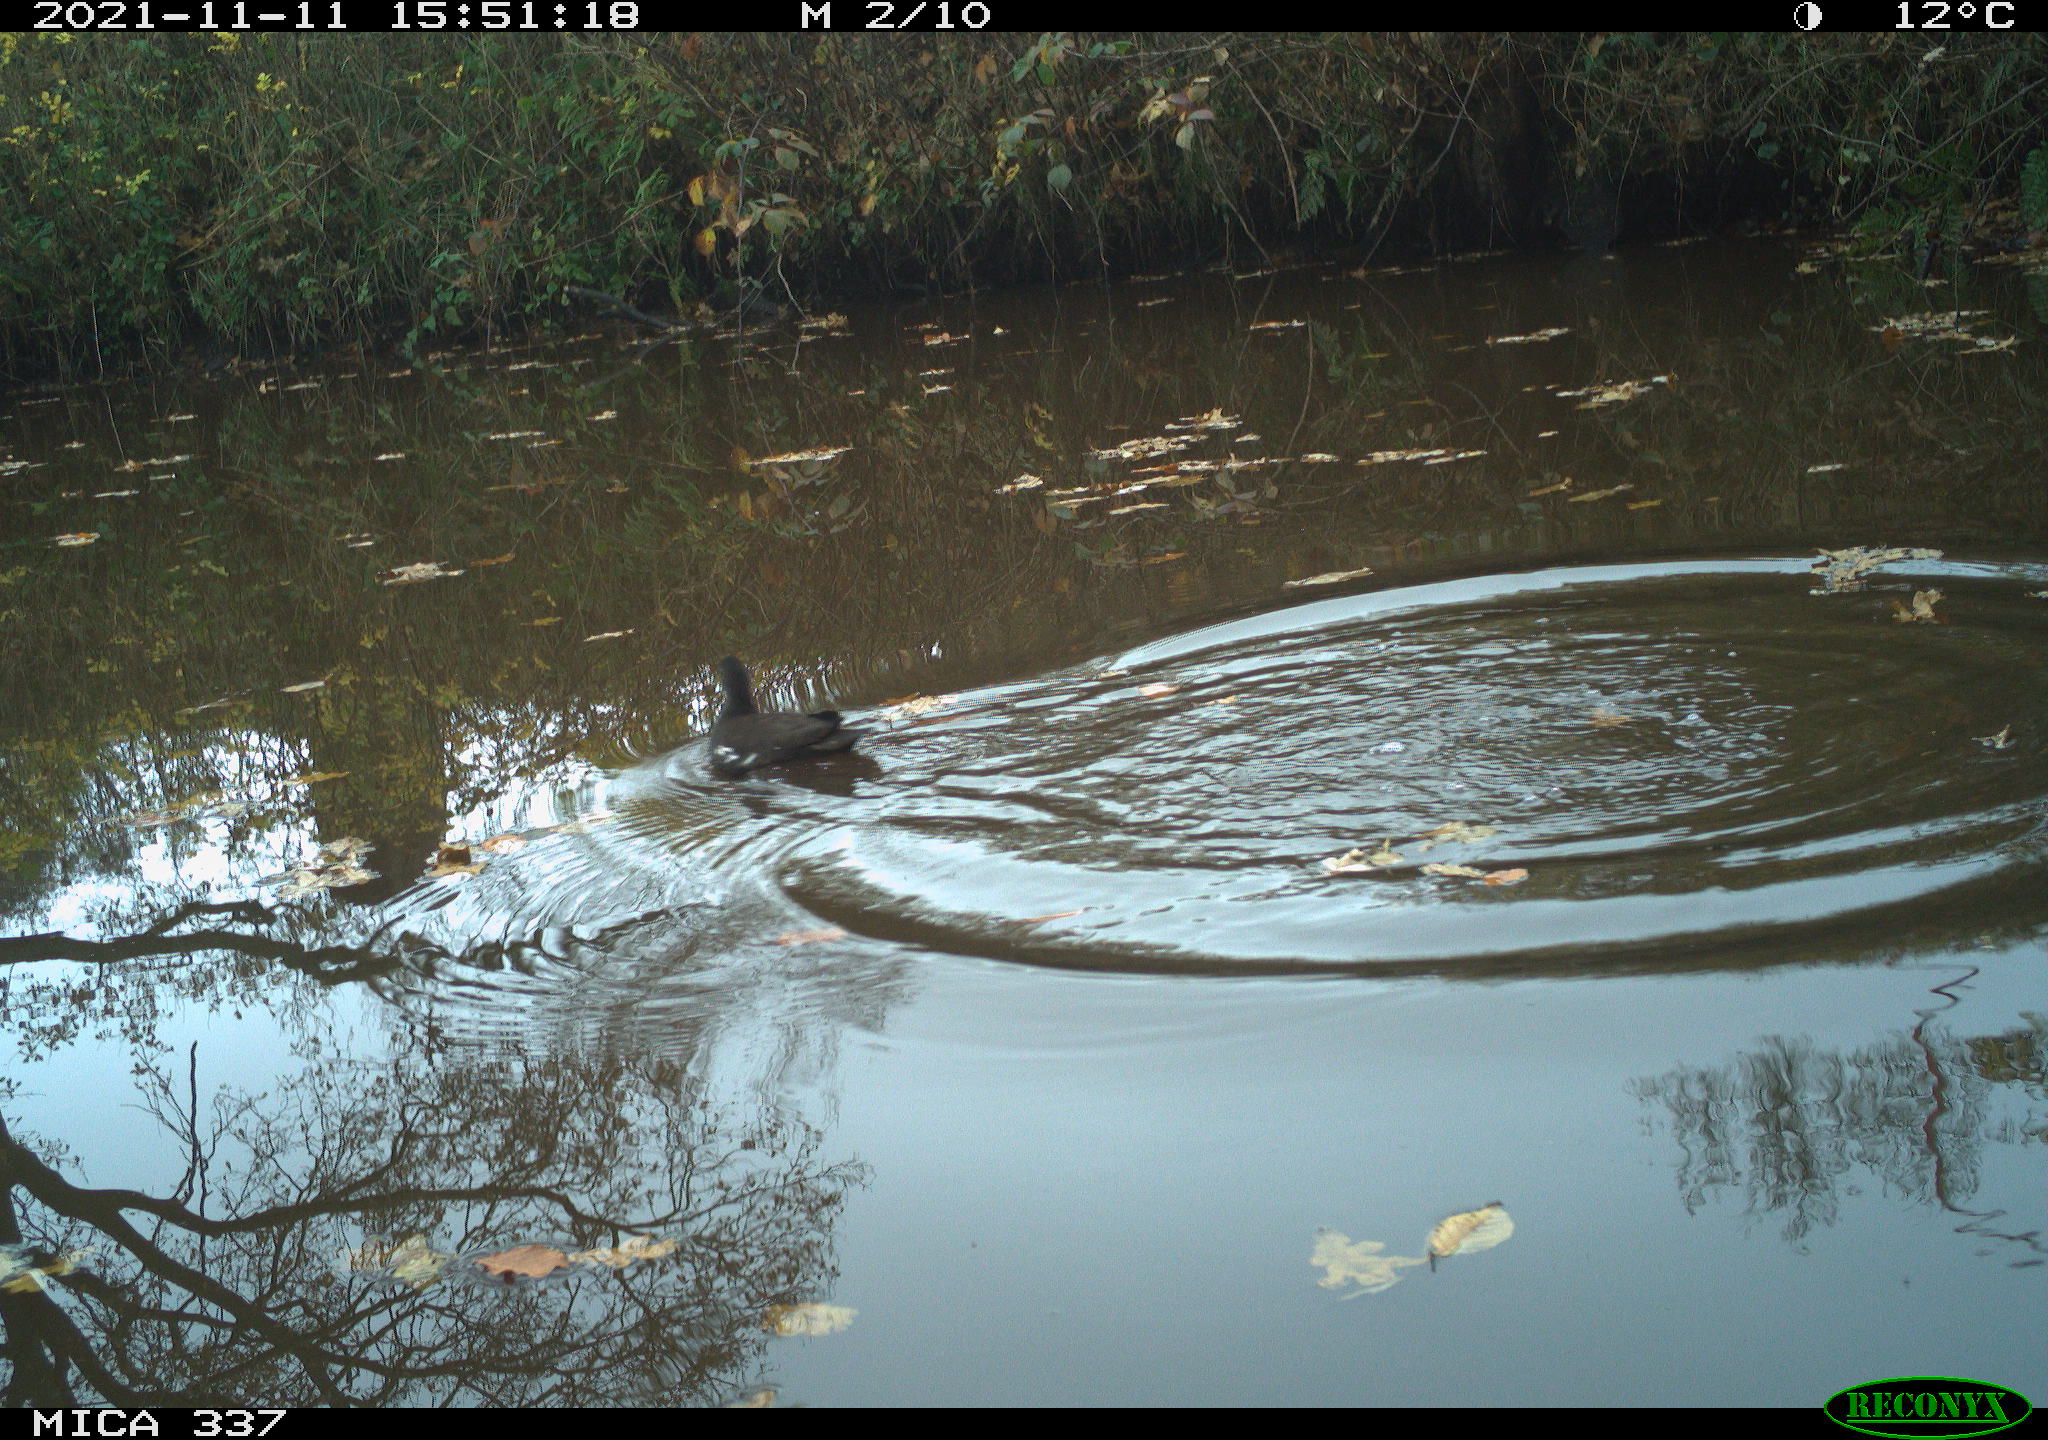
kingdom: Animalia
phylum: Chordata
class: Aves
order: Gruiformes
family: Rallidae
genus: Gallinula
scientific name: Gallinula chloropus
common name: Common moorhen
